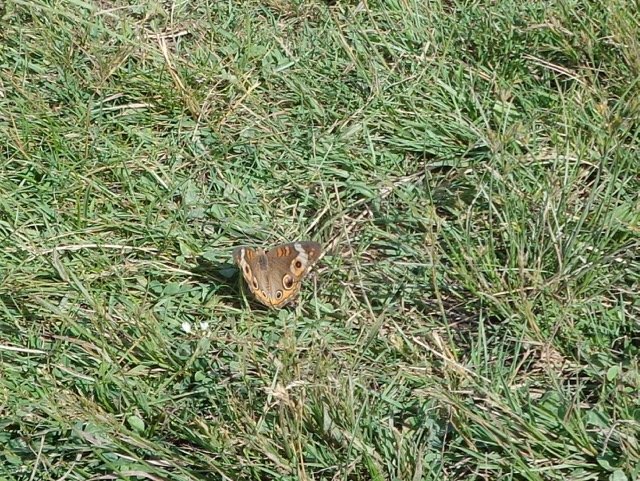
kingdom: Animalia
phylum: Arthropoda
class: Insecta
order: Lepidoptera
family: Nymphalidae
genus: Junonia
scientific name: Junonia coenia
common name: Common Buckeye
